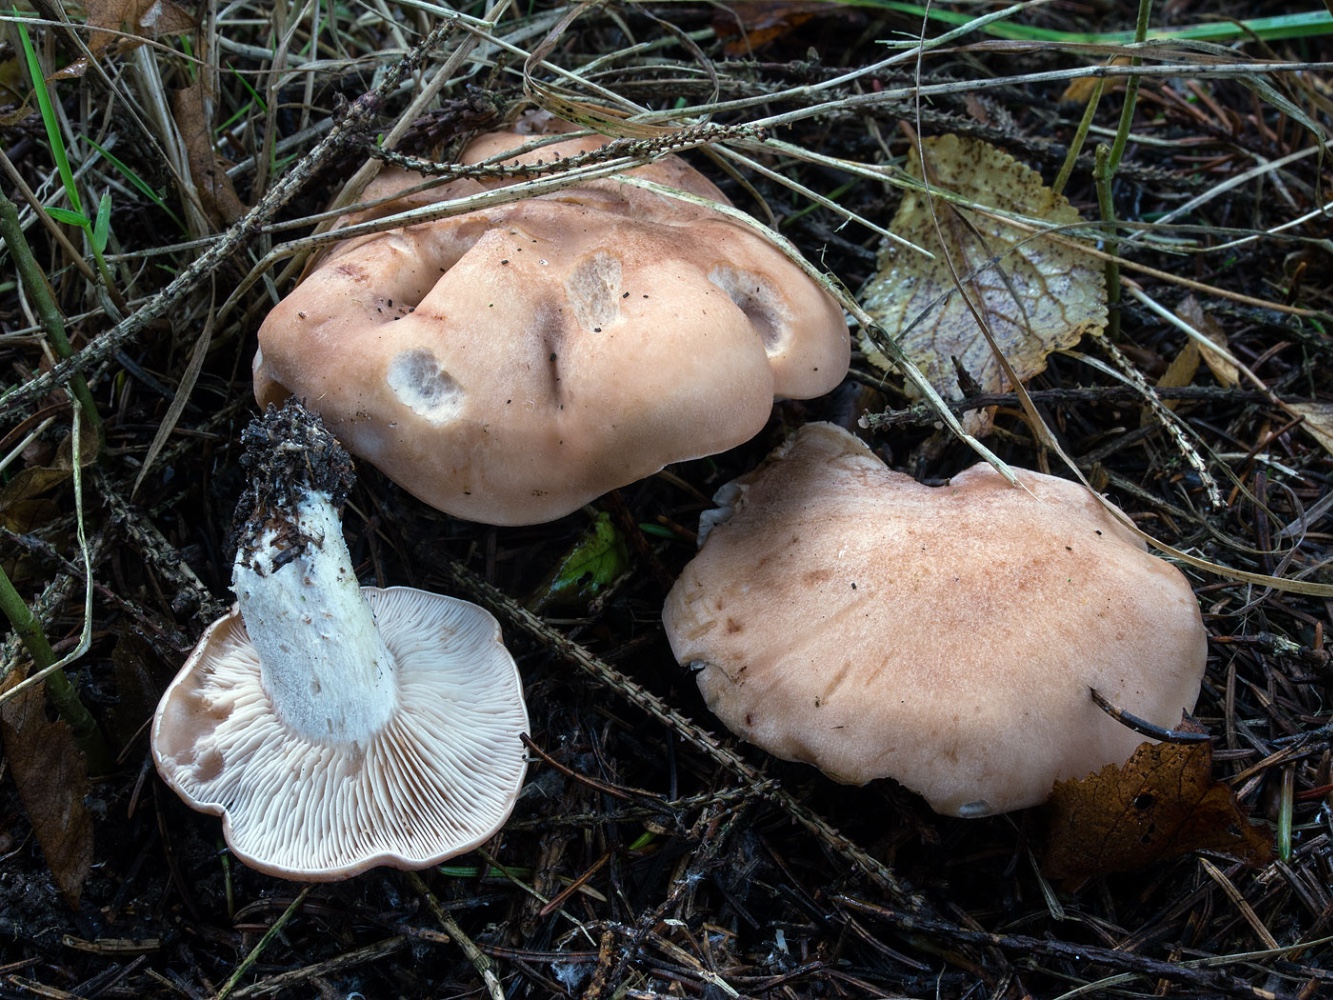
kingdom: Fungi
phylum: Basidiomycota
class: Agaricomycetes
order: Agaricales
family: Entolomataceae
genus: Clitopilus
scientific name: Clitopilus geminus
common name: kødfarvet troldhat
